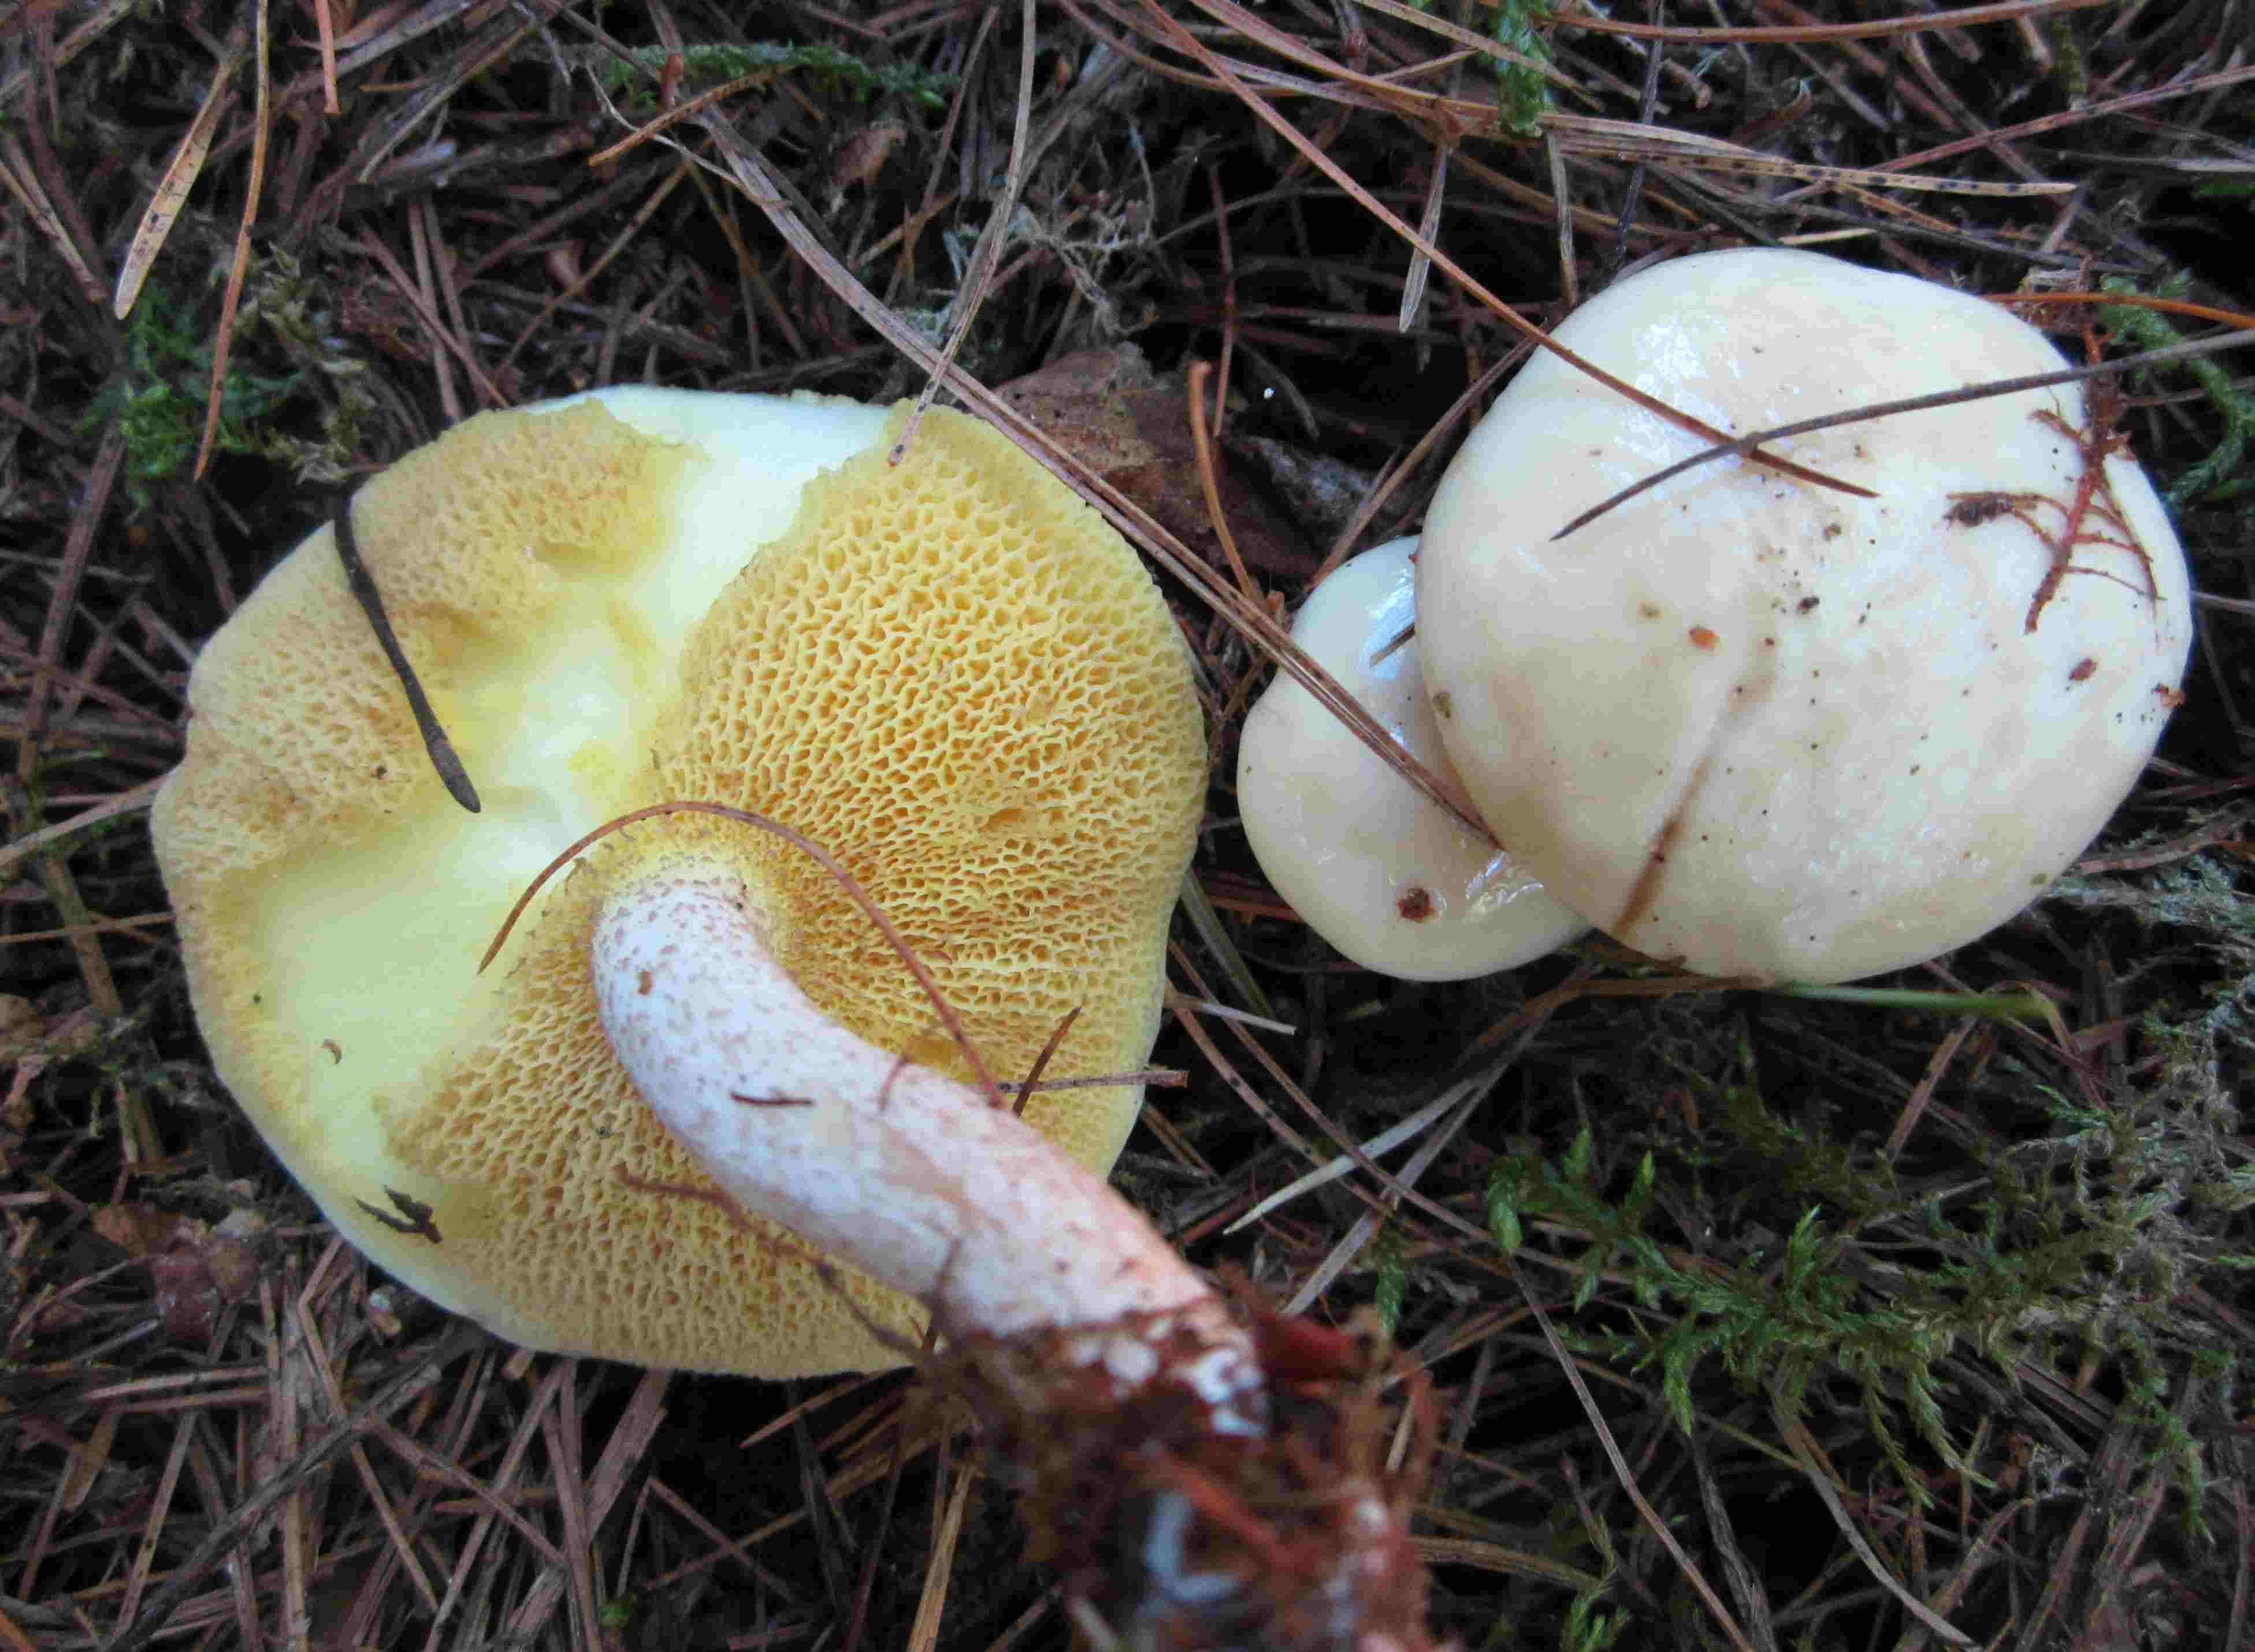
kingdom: Fungi
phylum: Basidiomycota
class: Agaricomycetes
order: Boletales
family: Suillaceae
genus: Suillus
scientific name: Suillus placidus
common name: elfenbens-slimrørhat
